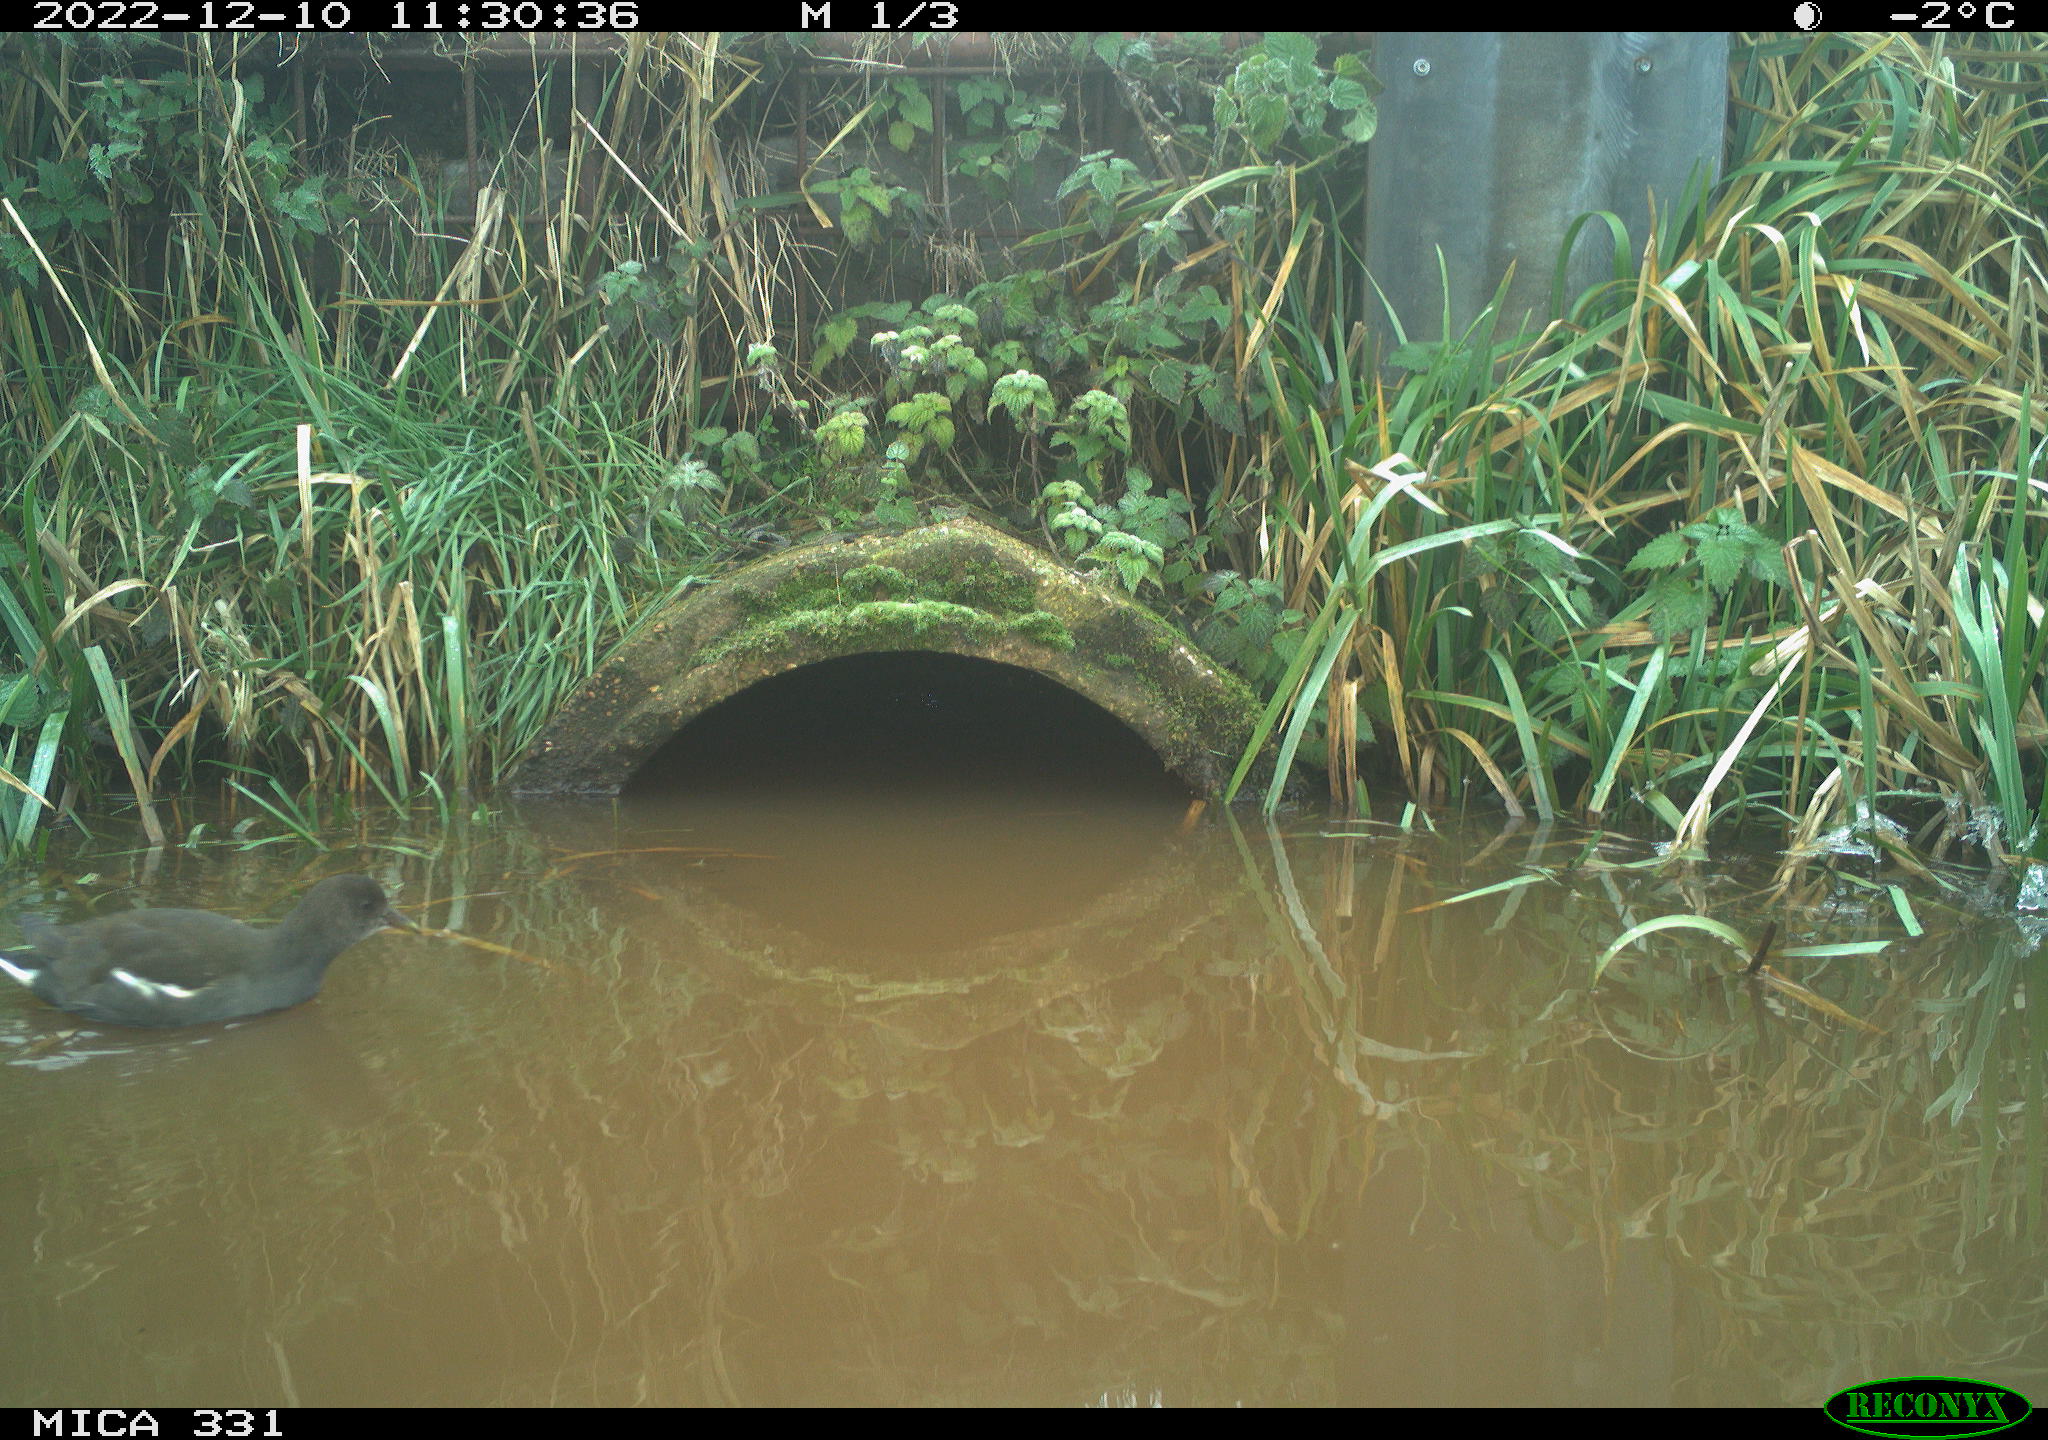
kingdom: Animalia
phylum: Chordata
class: Aves
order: Gruiformes
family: Rallidae
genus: Gallinula
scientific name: Gallinula chloropus
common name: Common moorhen
